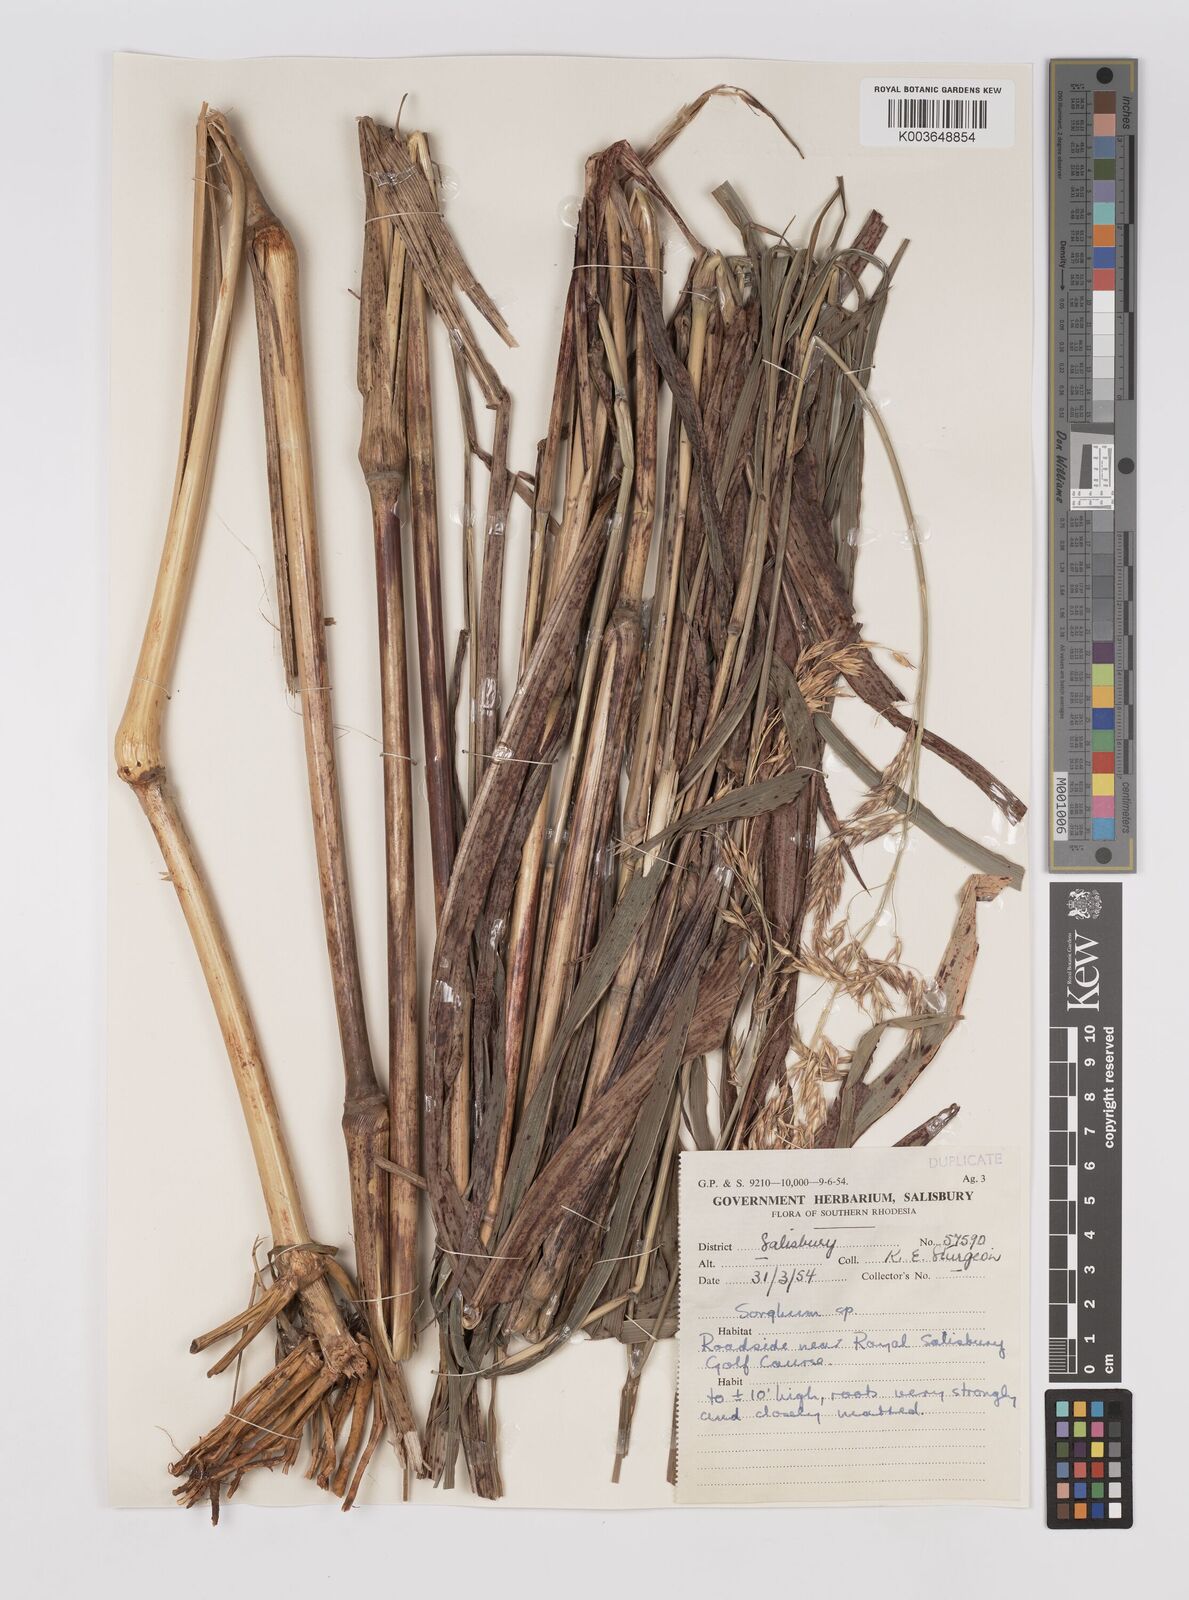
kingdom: Plantae
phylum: Tracheophyta
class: Liliopsida
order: Poales
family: Poaceae
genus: Sorghum
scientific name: Sorghum arundinaceum
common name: Sorghum
